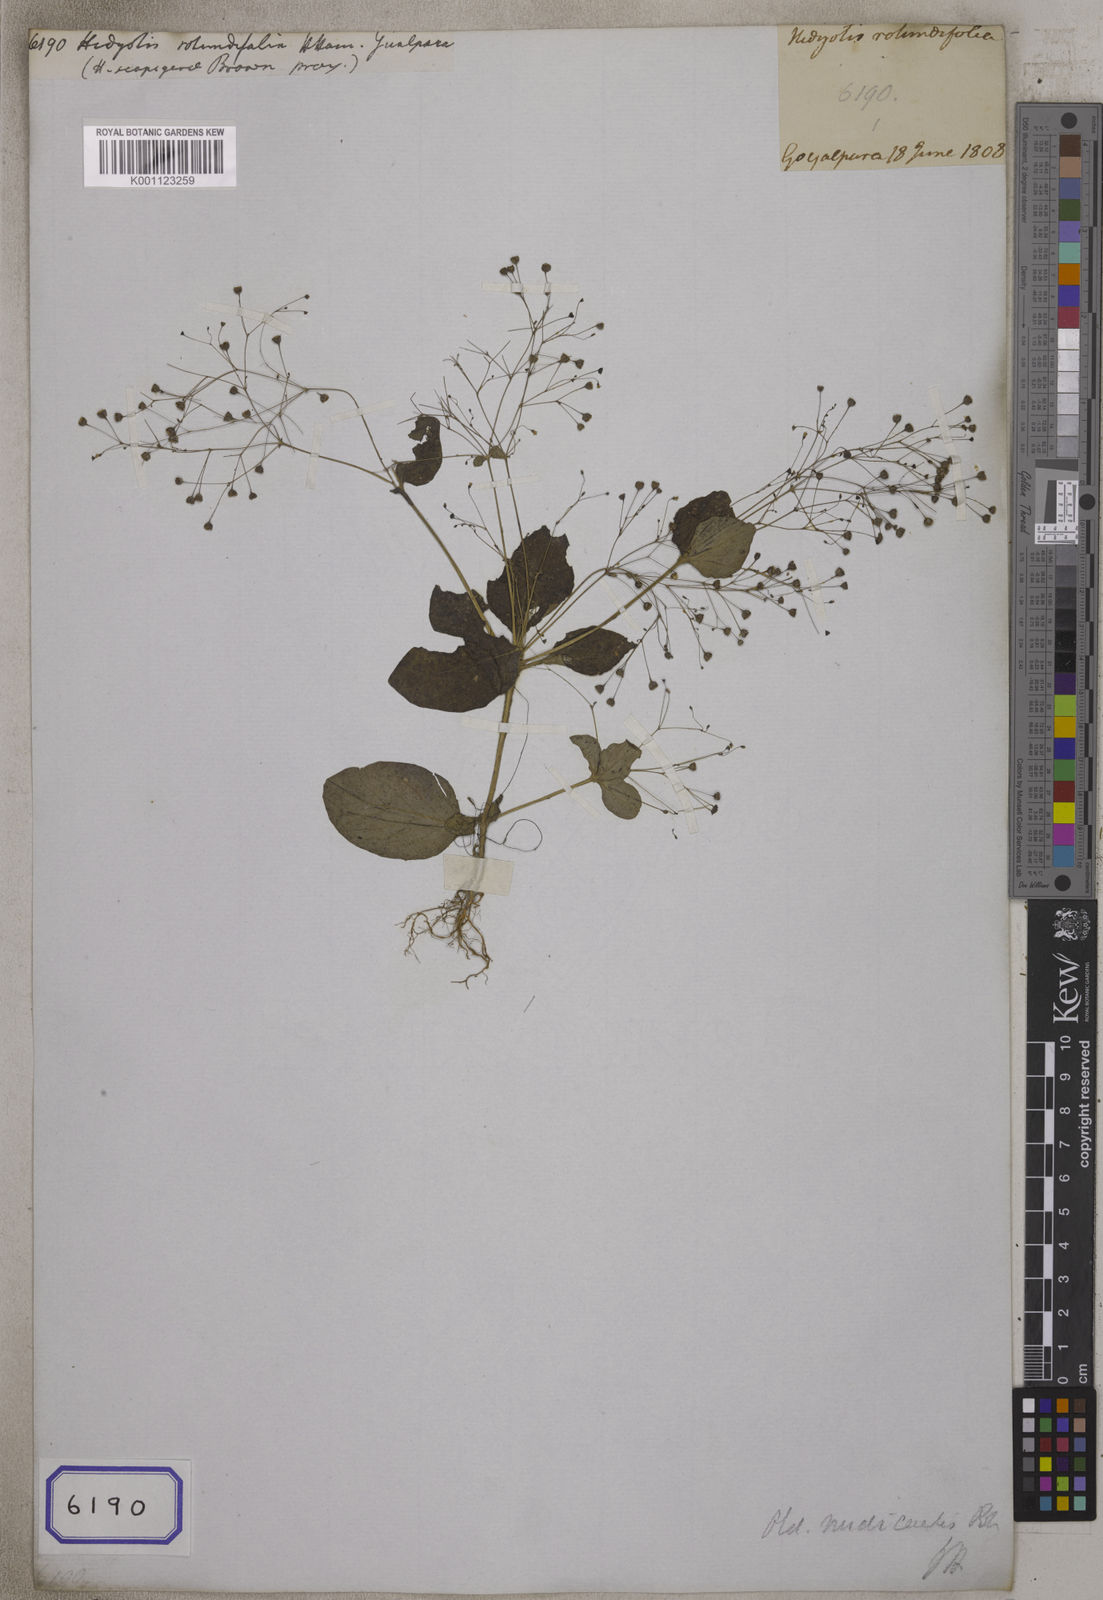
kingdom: Plantae
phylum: Tracheophyta
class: Magnoliopsida
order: Gentianales
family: Rubiaceae
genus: Hedyotis
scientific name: Hedyotis
